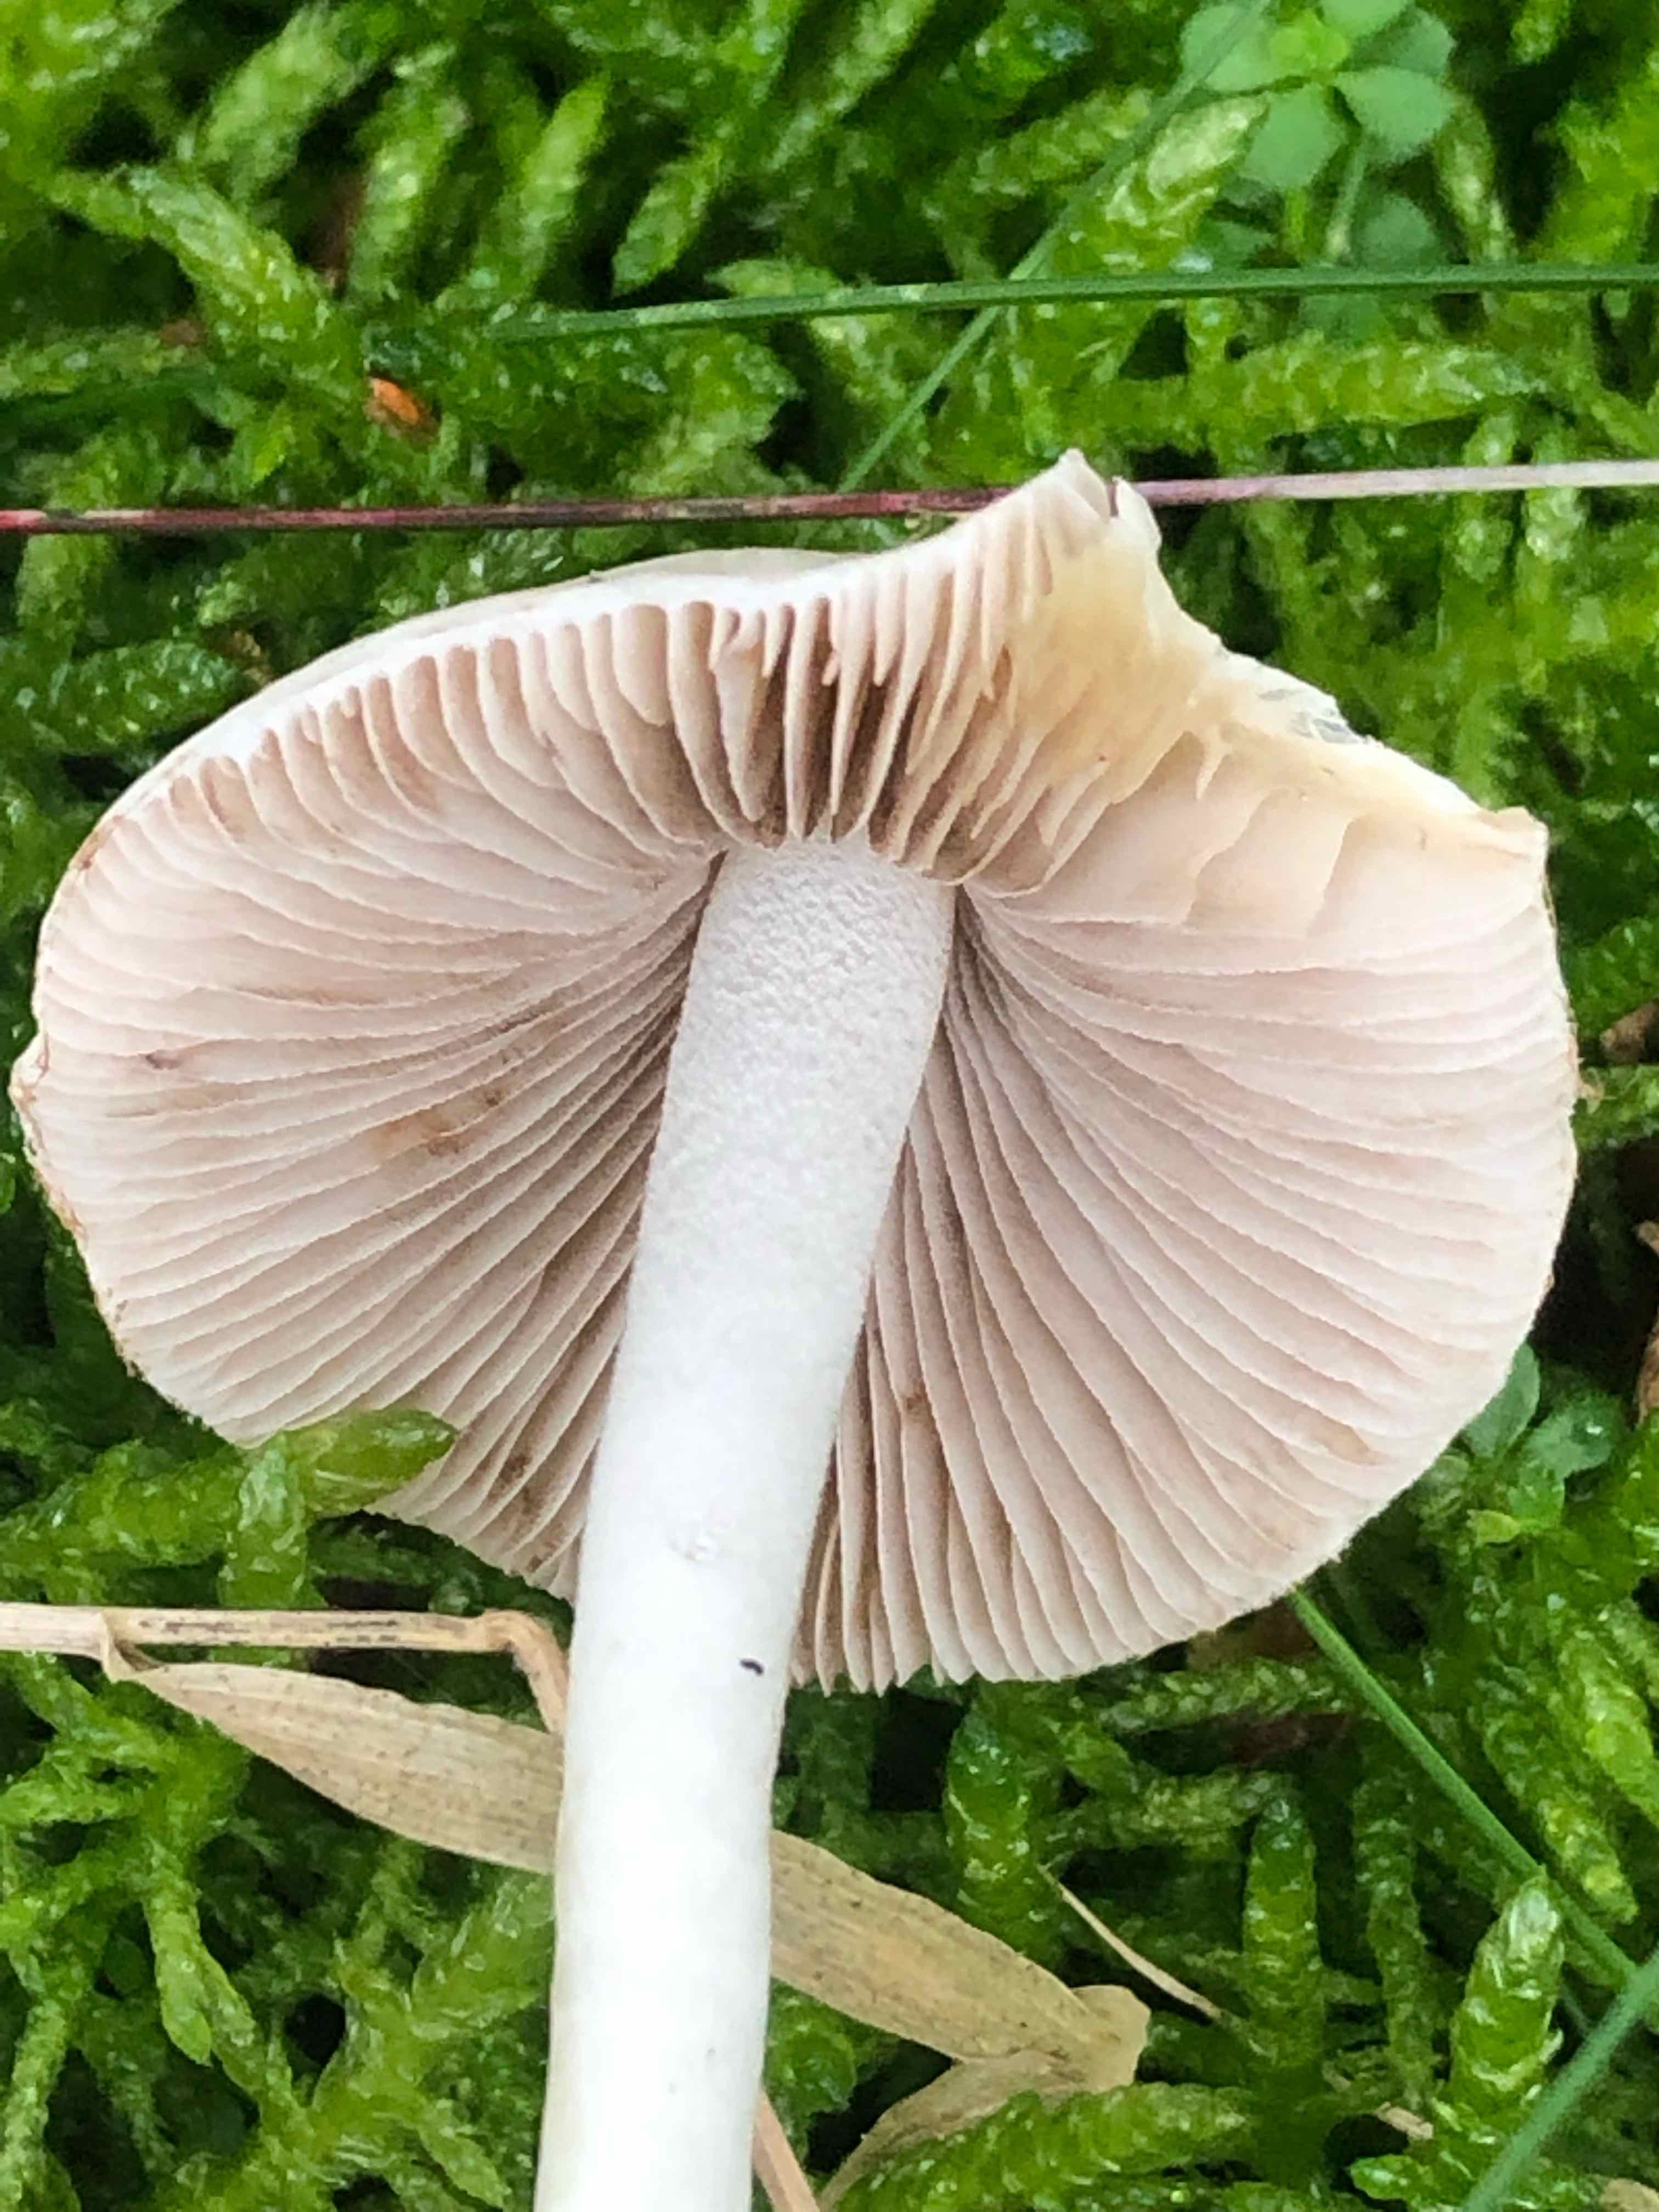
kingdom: Fungi
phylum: Basidiomycota
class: Agaricomycetes
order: Agaricales
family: Inocybaceae
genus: Inocybe
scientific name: Inocybe
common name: almindelig trævlhat
